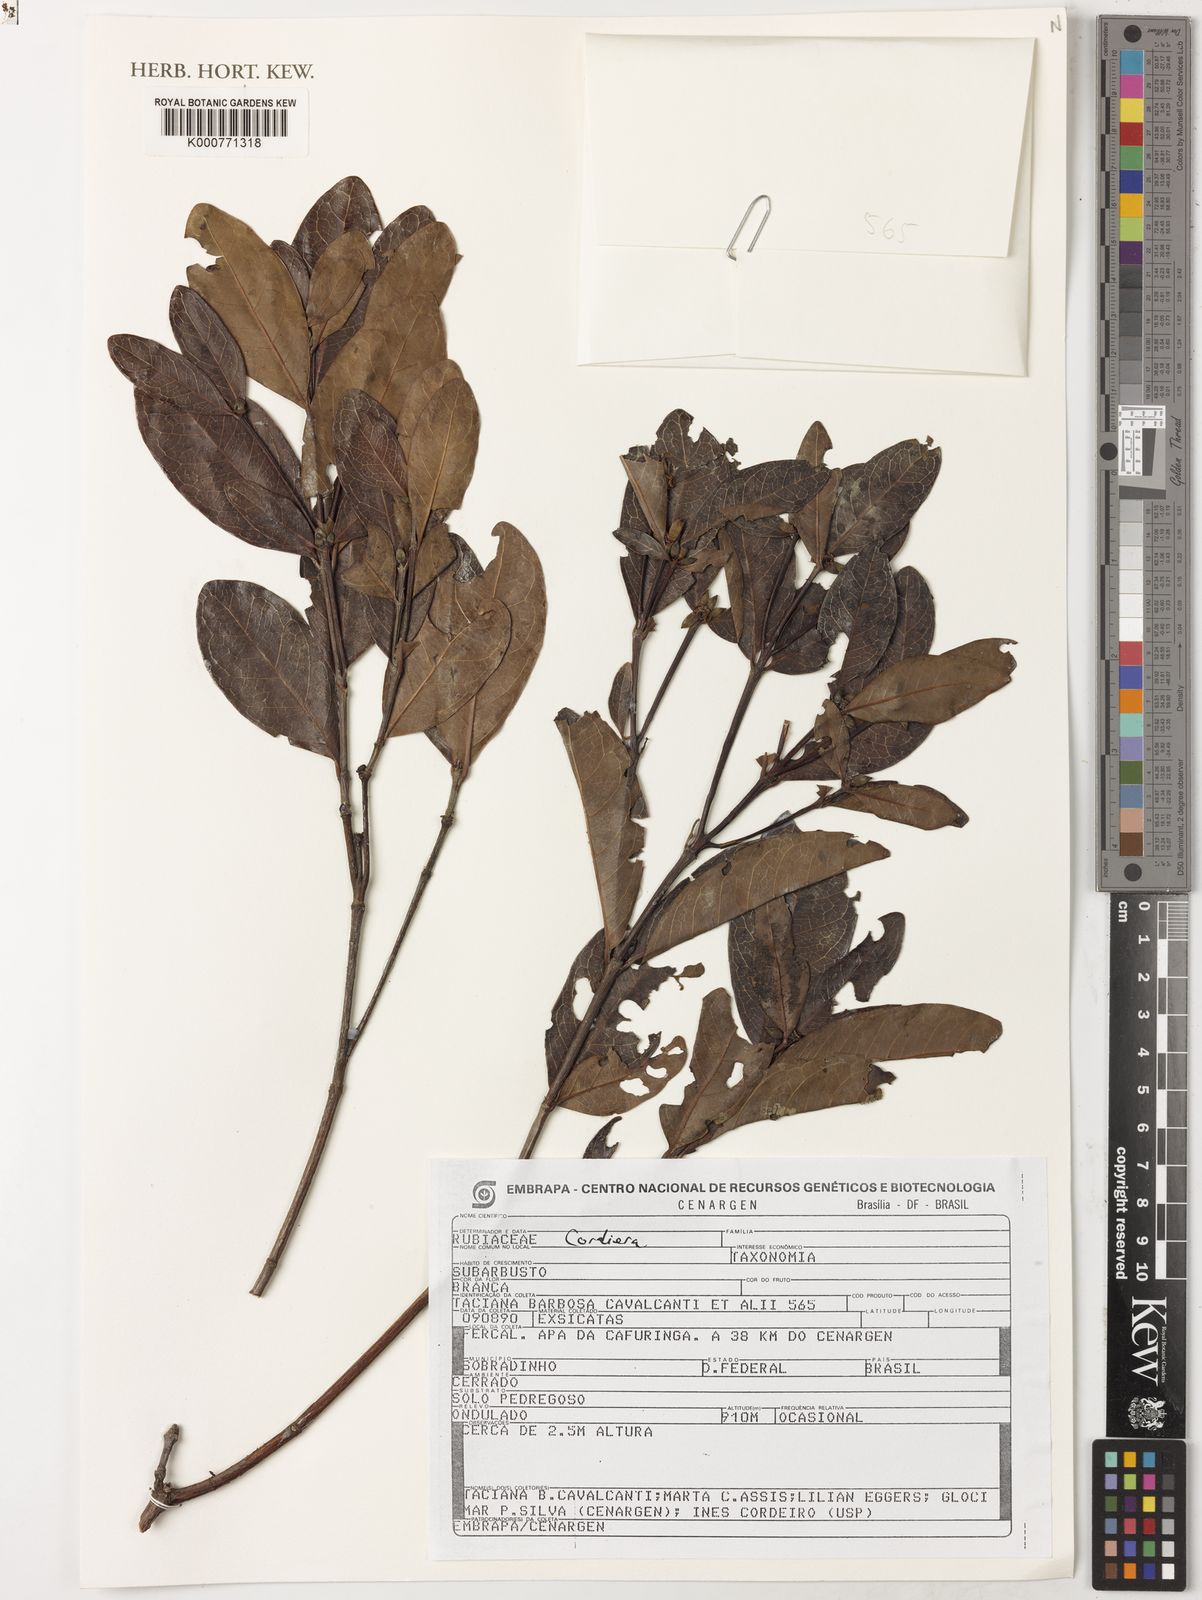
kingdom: Plantae
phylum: Tracheophyta
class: Magnoliopsida
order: Gentianales
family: Rubiaceae
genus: Cordiera
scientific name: Cordiera
